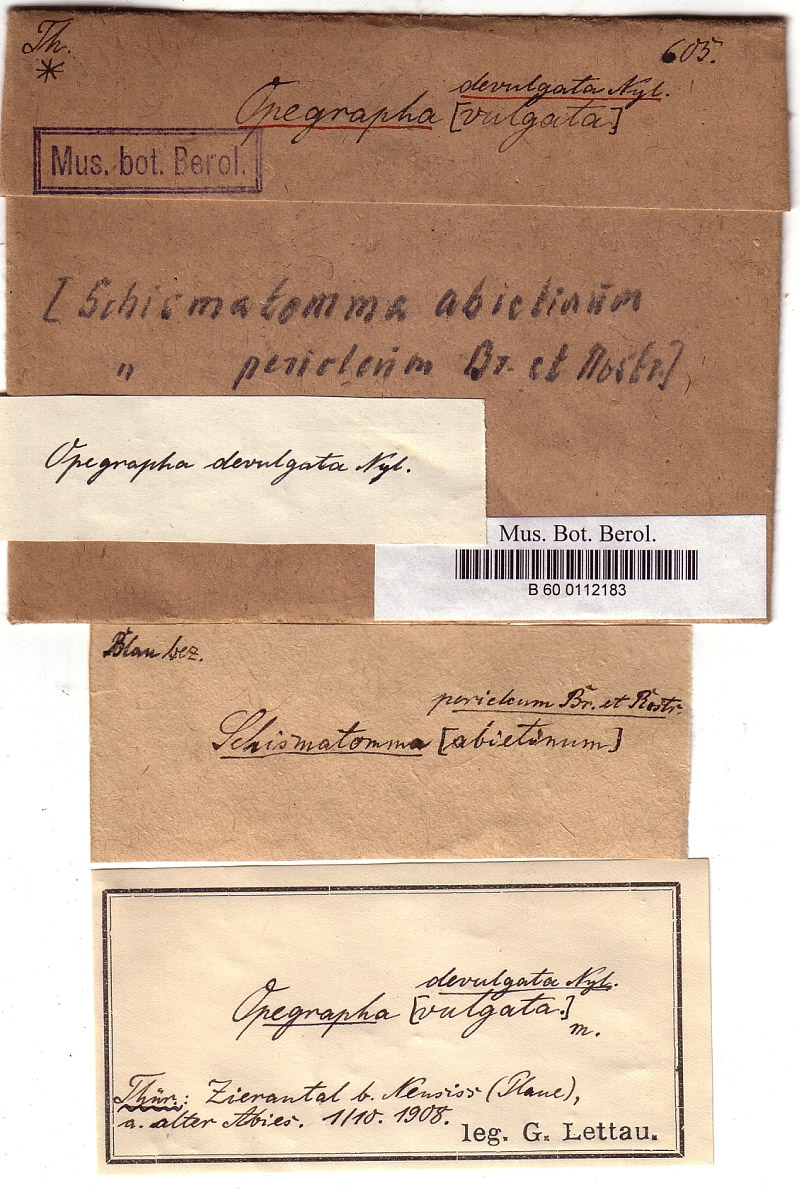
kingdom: Fungi
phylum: Ascomycota
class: Arthoniomycetes
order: Arthoniales
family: Roccellaceae
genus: Lecanactis
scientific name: Lecanactis abietina
